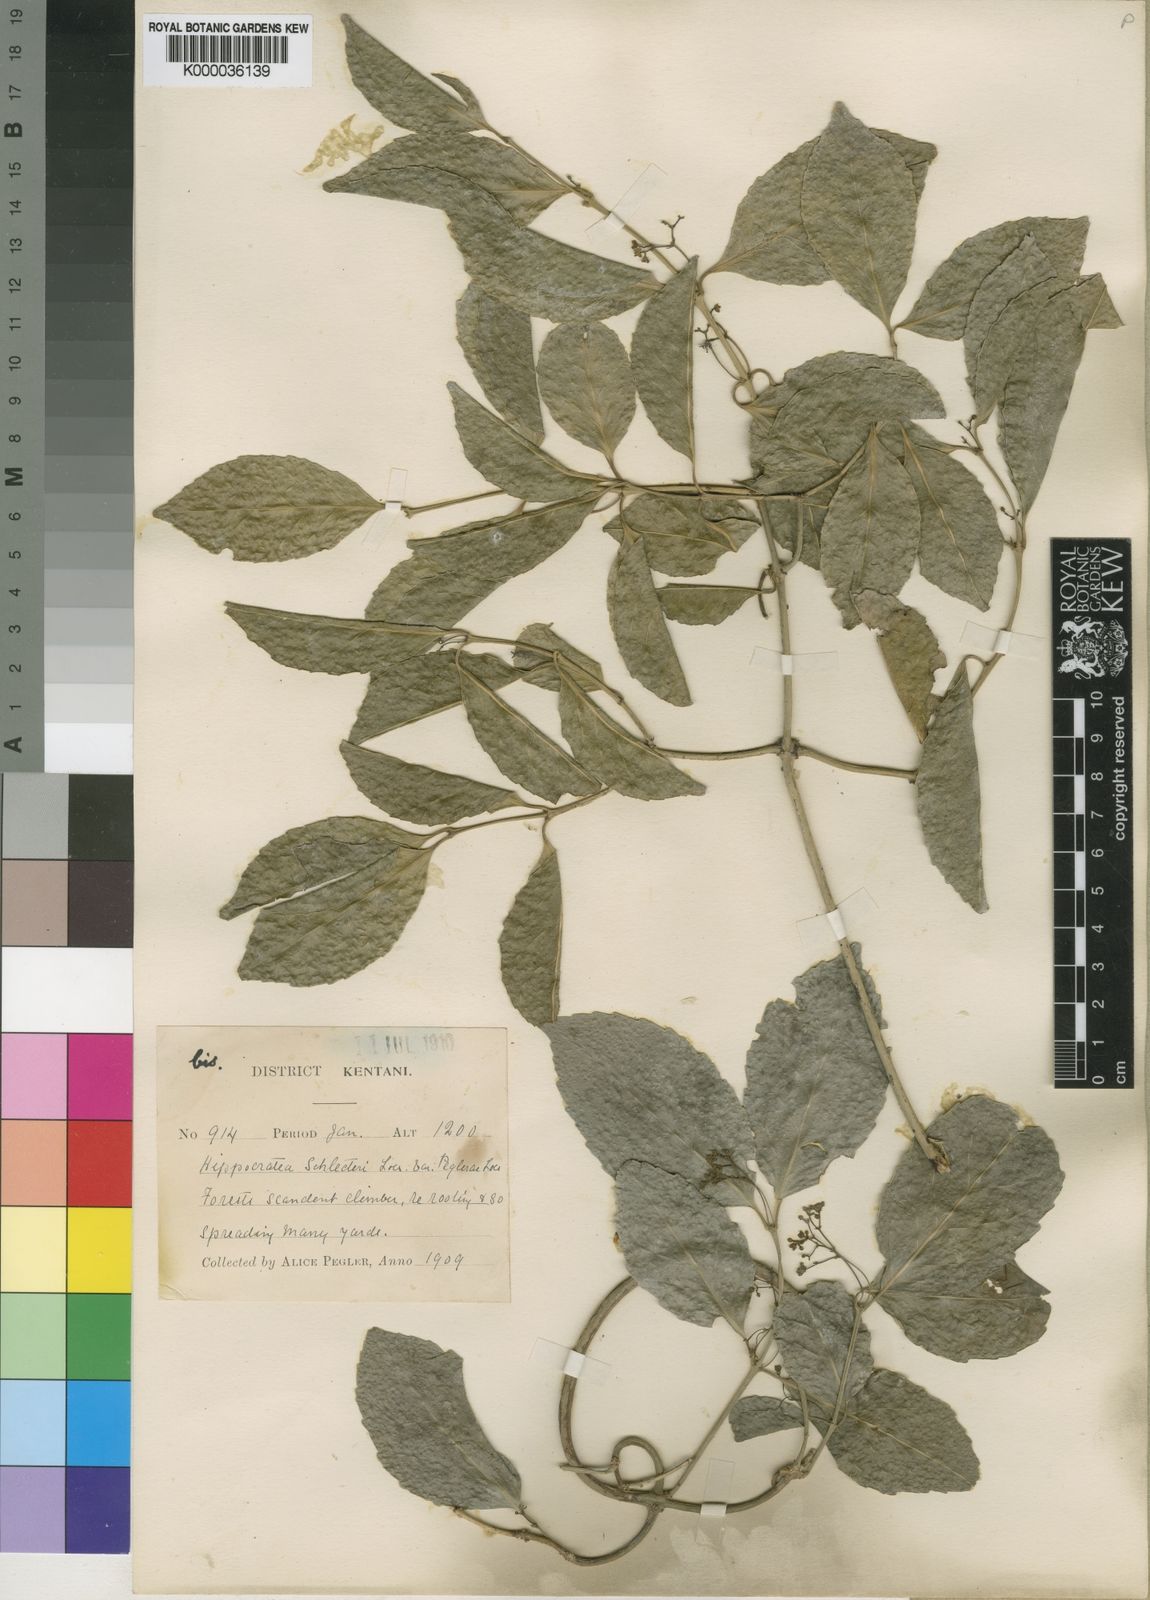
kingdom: Plantae
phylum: Tracheophyta
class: Magnoliopsida
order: Celastrales
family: Celastraceae
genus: Hippocratea
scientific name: Hippocratea
